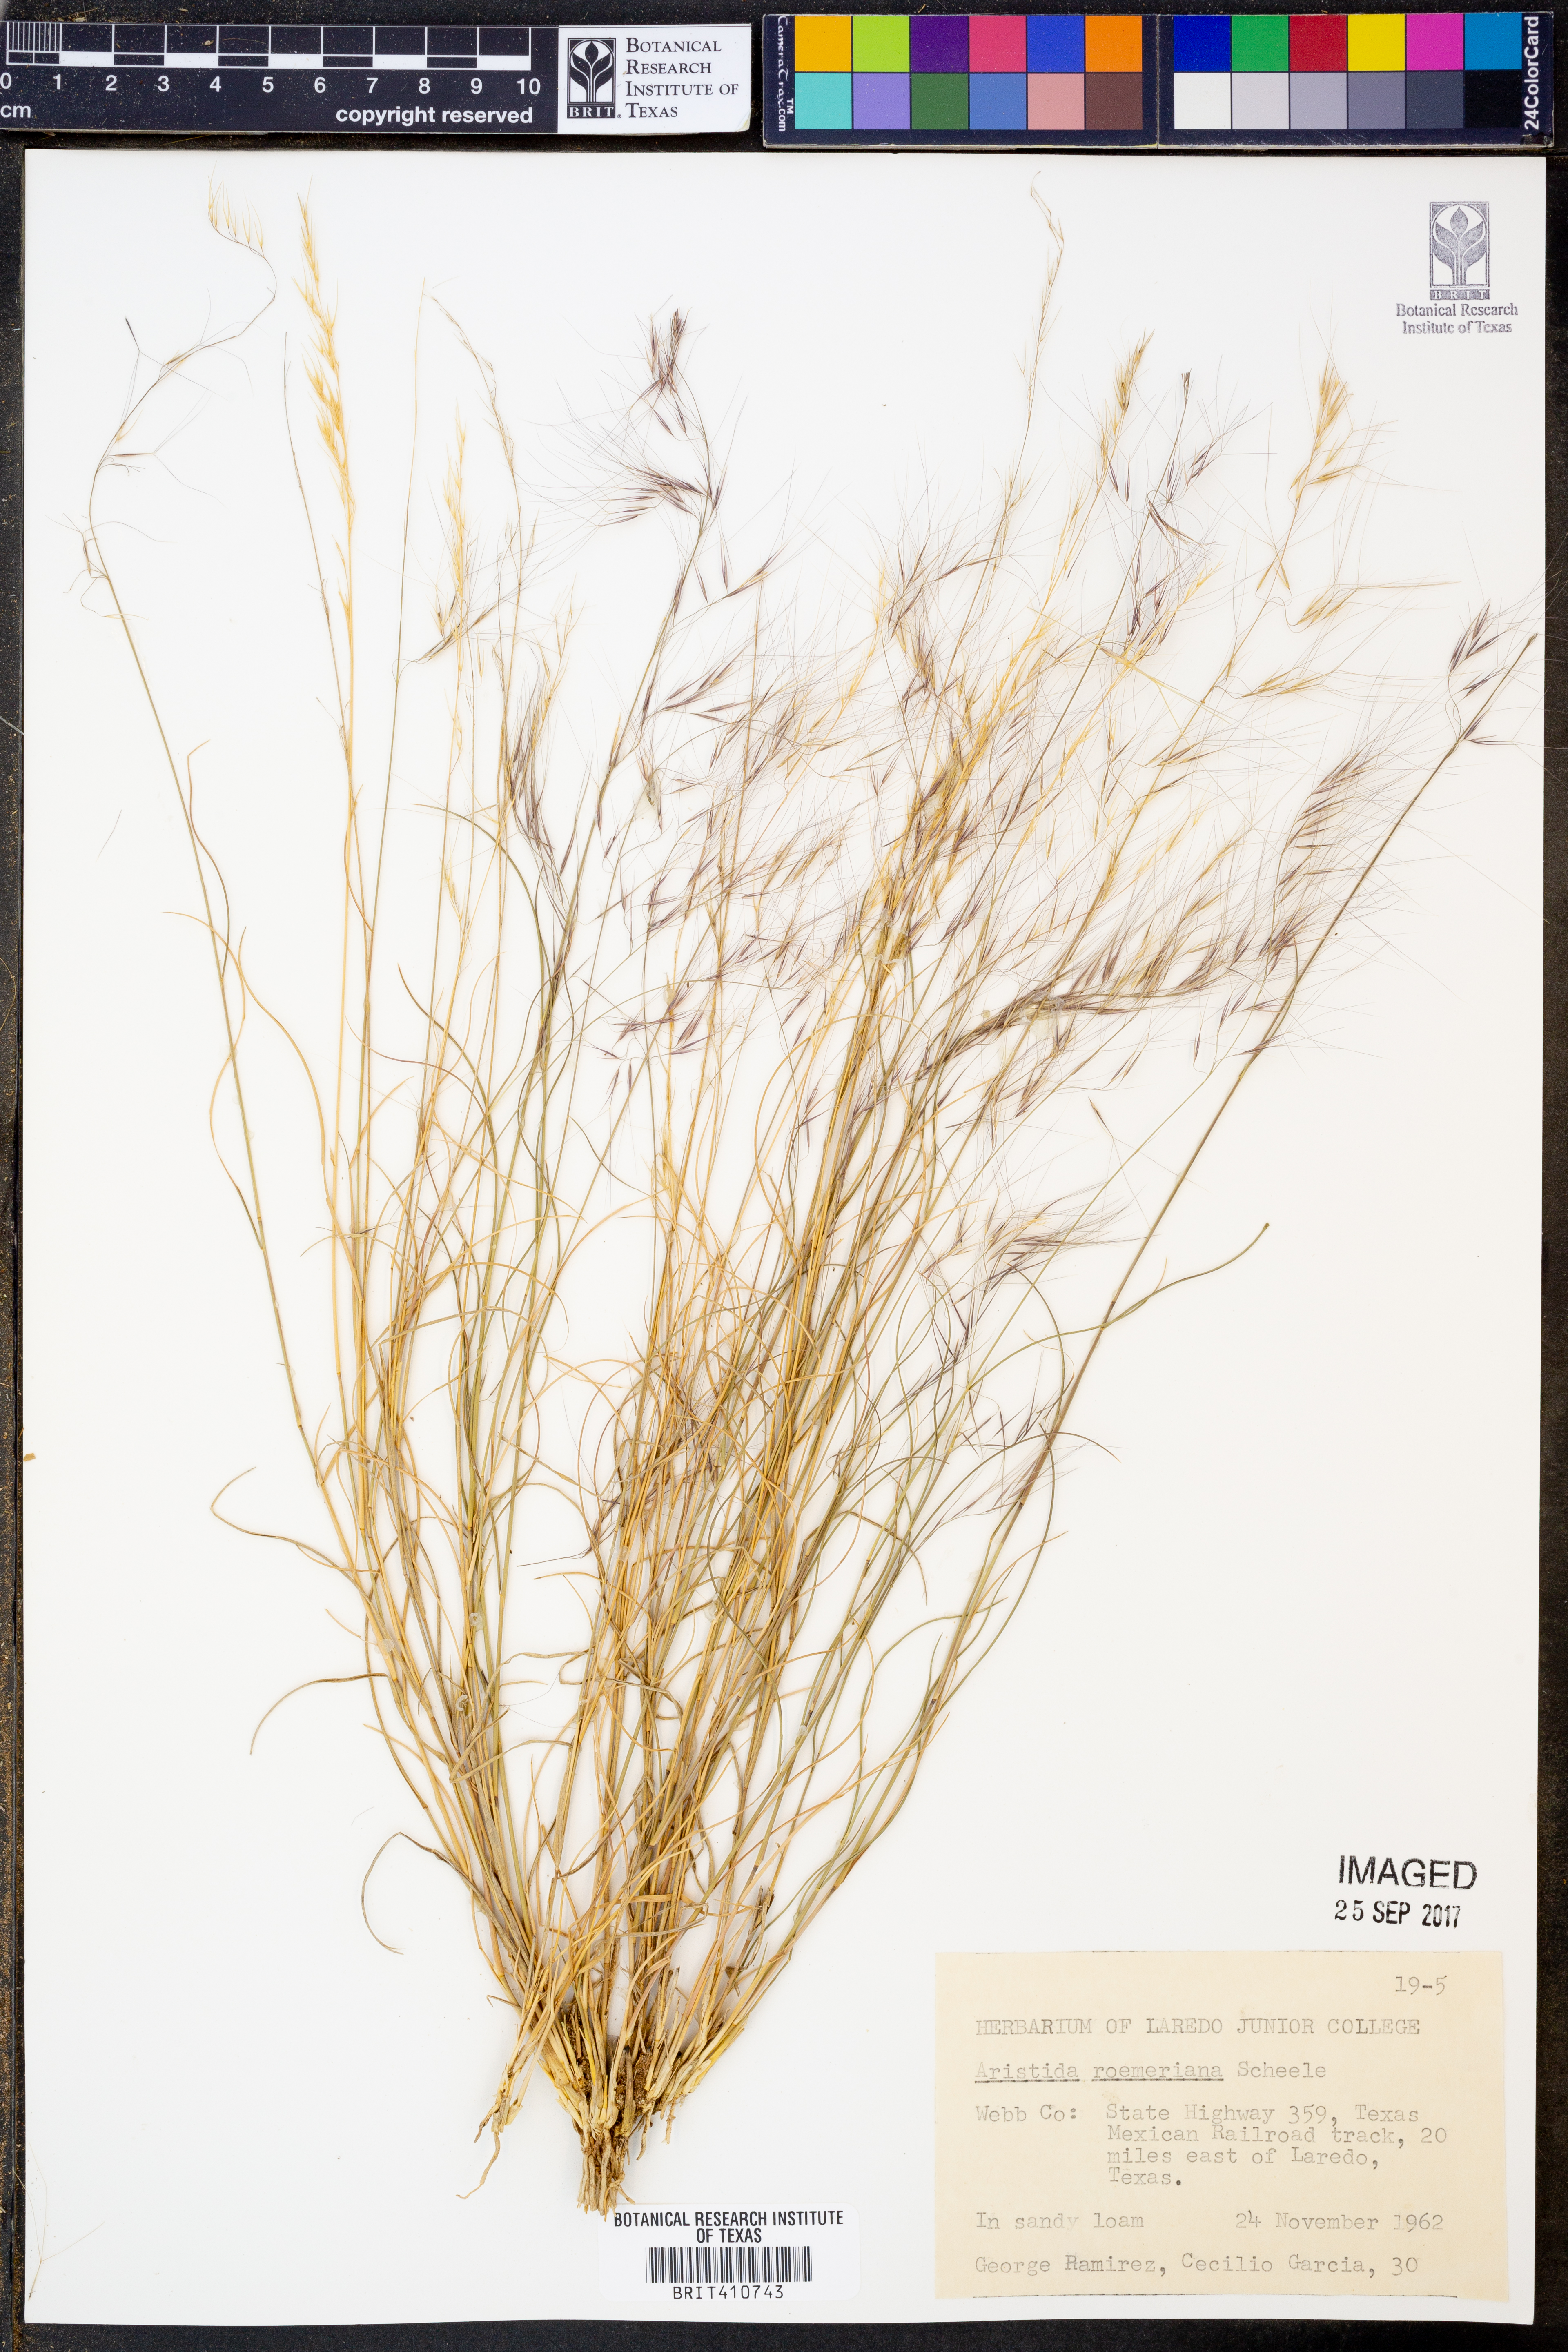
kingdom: Plantae
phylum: Tracheophyta
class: Liliopsida
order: Poales
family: Poaceae
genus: Aristida
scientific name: Aristida purpurea
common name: Purple threeawn
